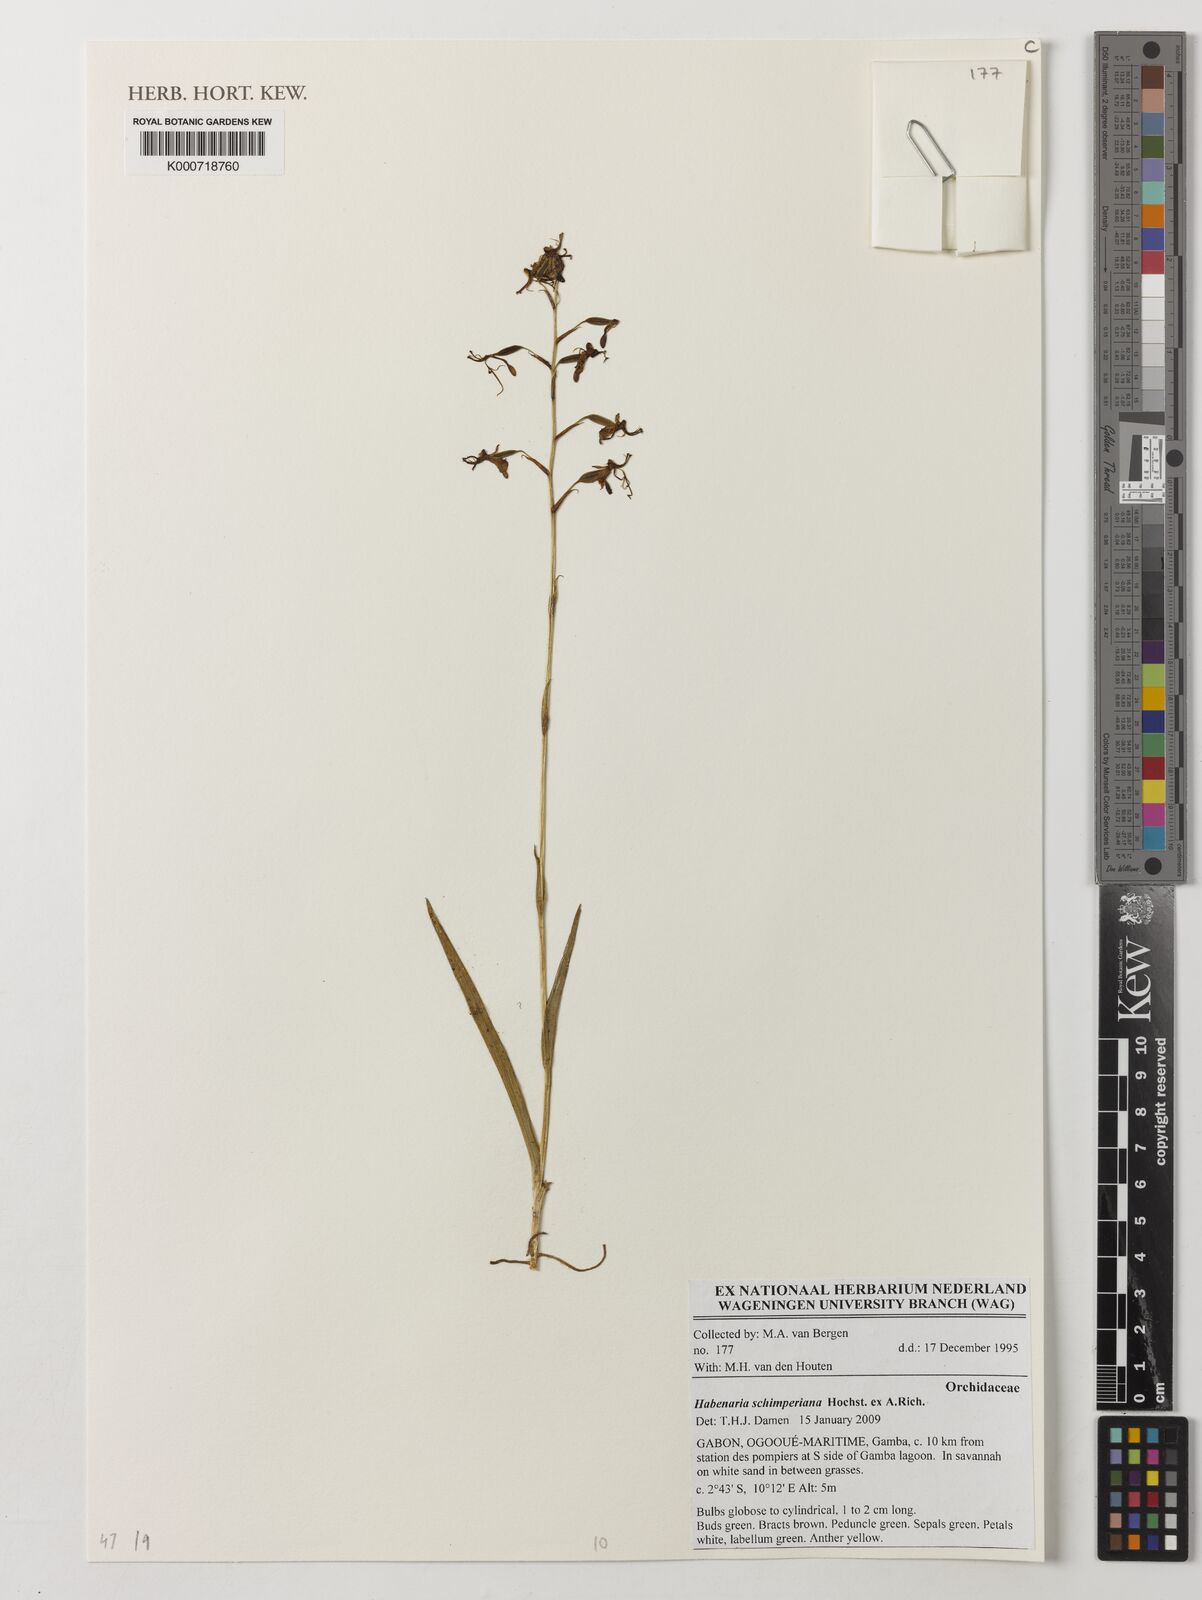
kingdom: Plantae
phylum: Tracheophyta
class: Liliopsida
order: Asparagales
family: Orchidaceae
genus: Habenaria
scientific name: Habenaria schimperiana
